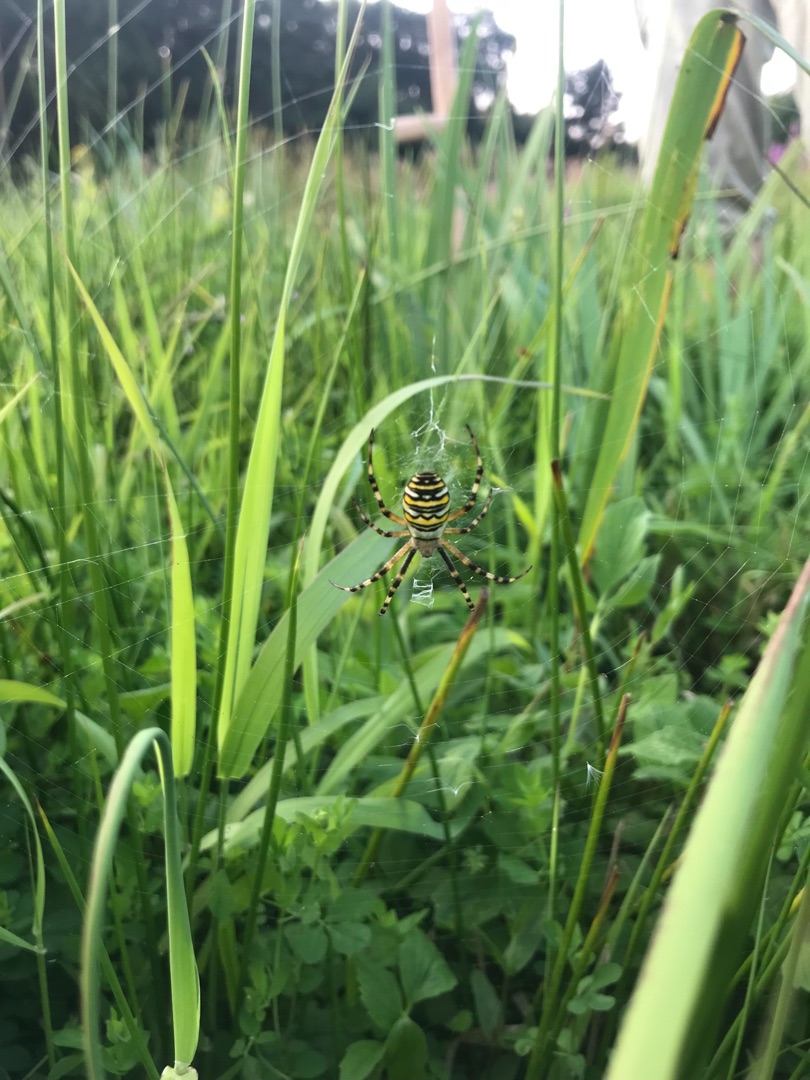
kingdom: Animalia
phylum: Arthropoda
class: Arachnida
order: Araneae
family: Araneidae
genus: Argiope
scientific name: Argiope bruennichi
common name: Hvepseedderkop
